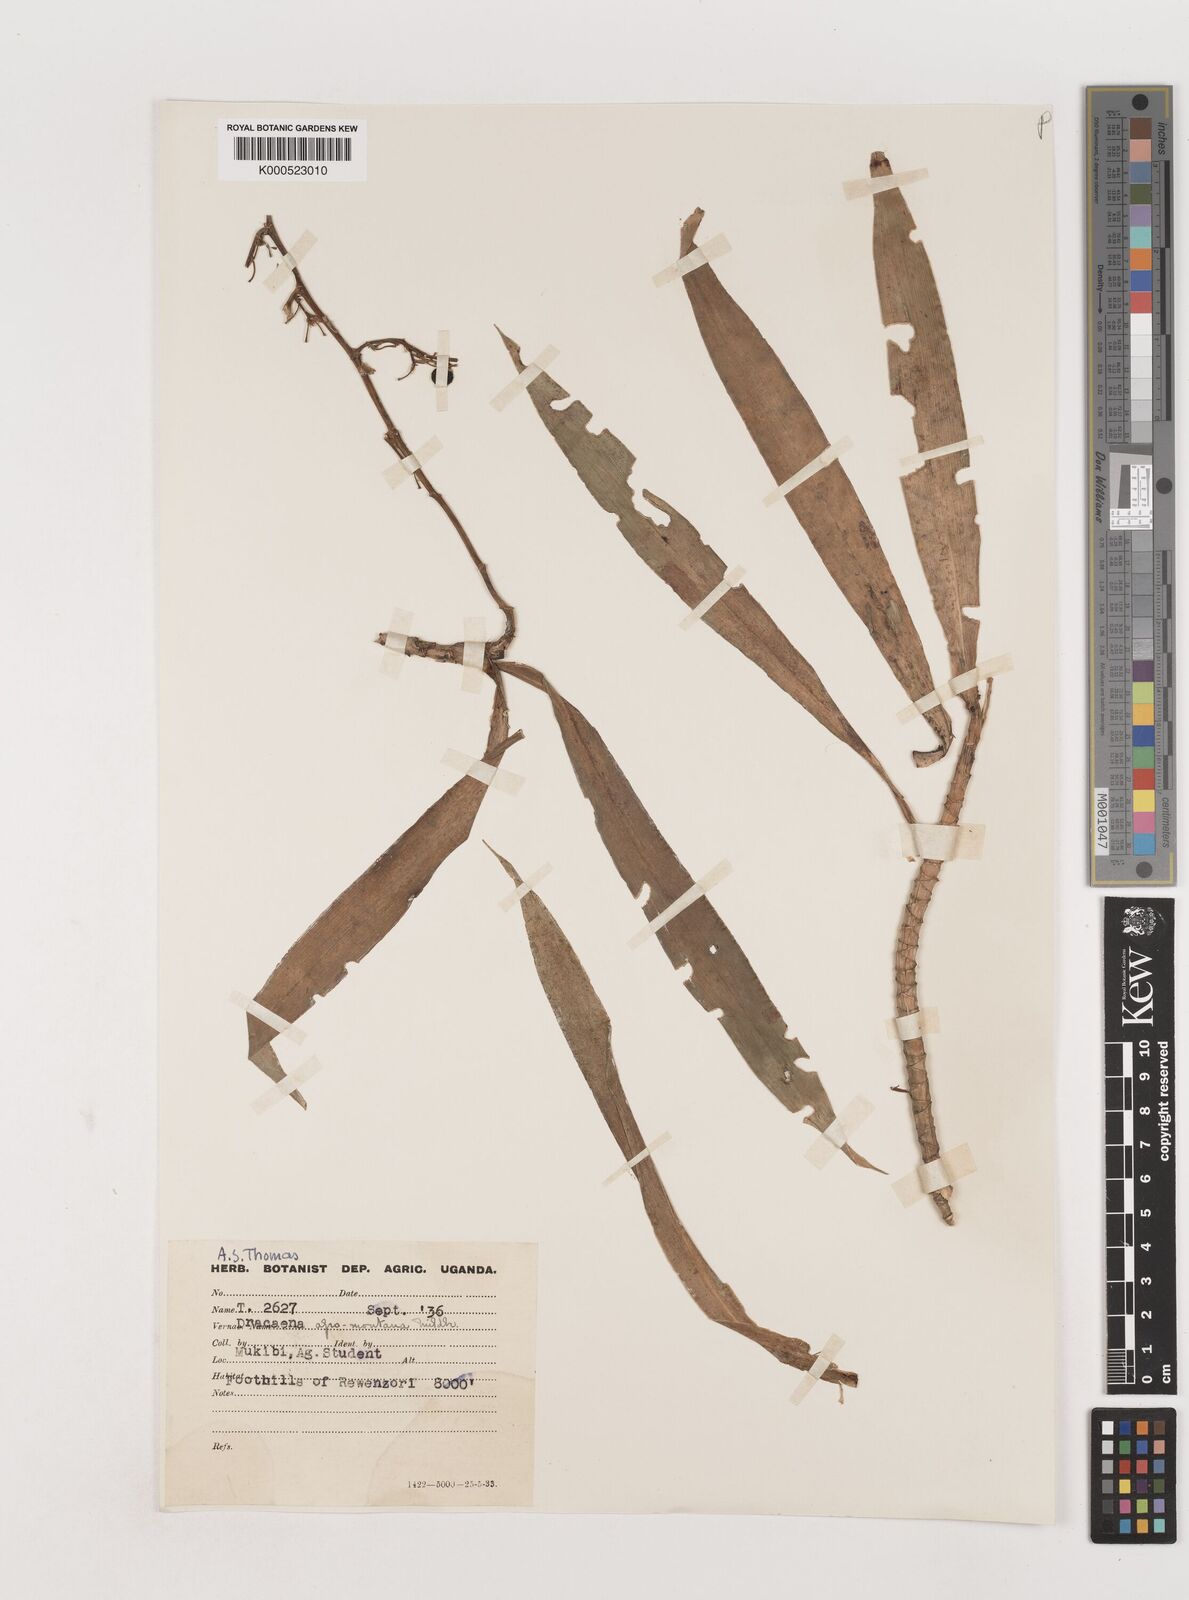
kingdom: Plantae
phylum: Tracheophyta
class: Liliopsida
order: Asparagales
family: Asparagaceae
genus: Dracaena
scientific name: Dracaena afromontana
